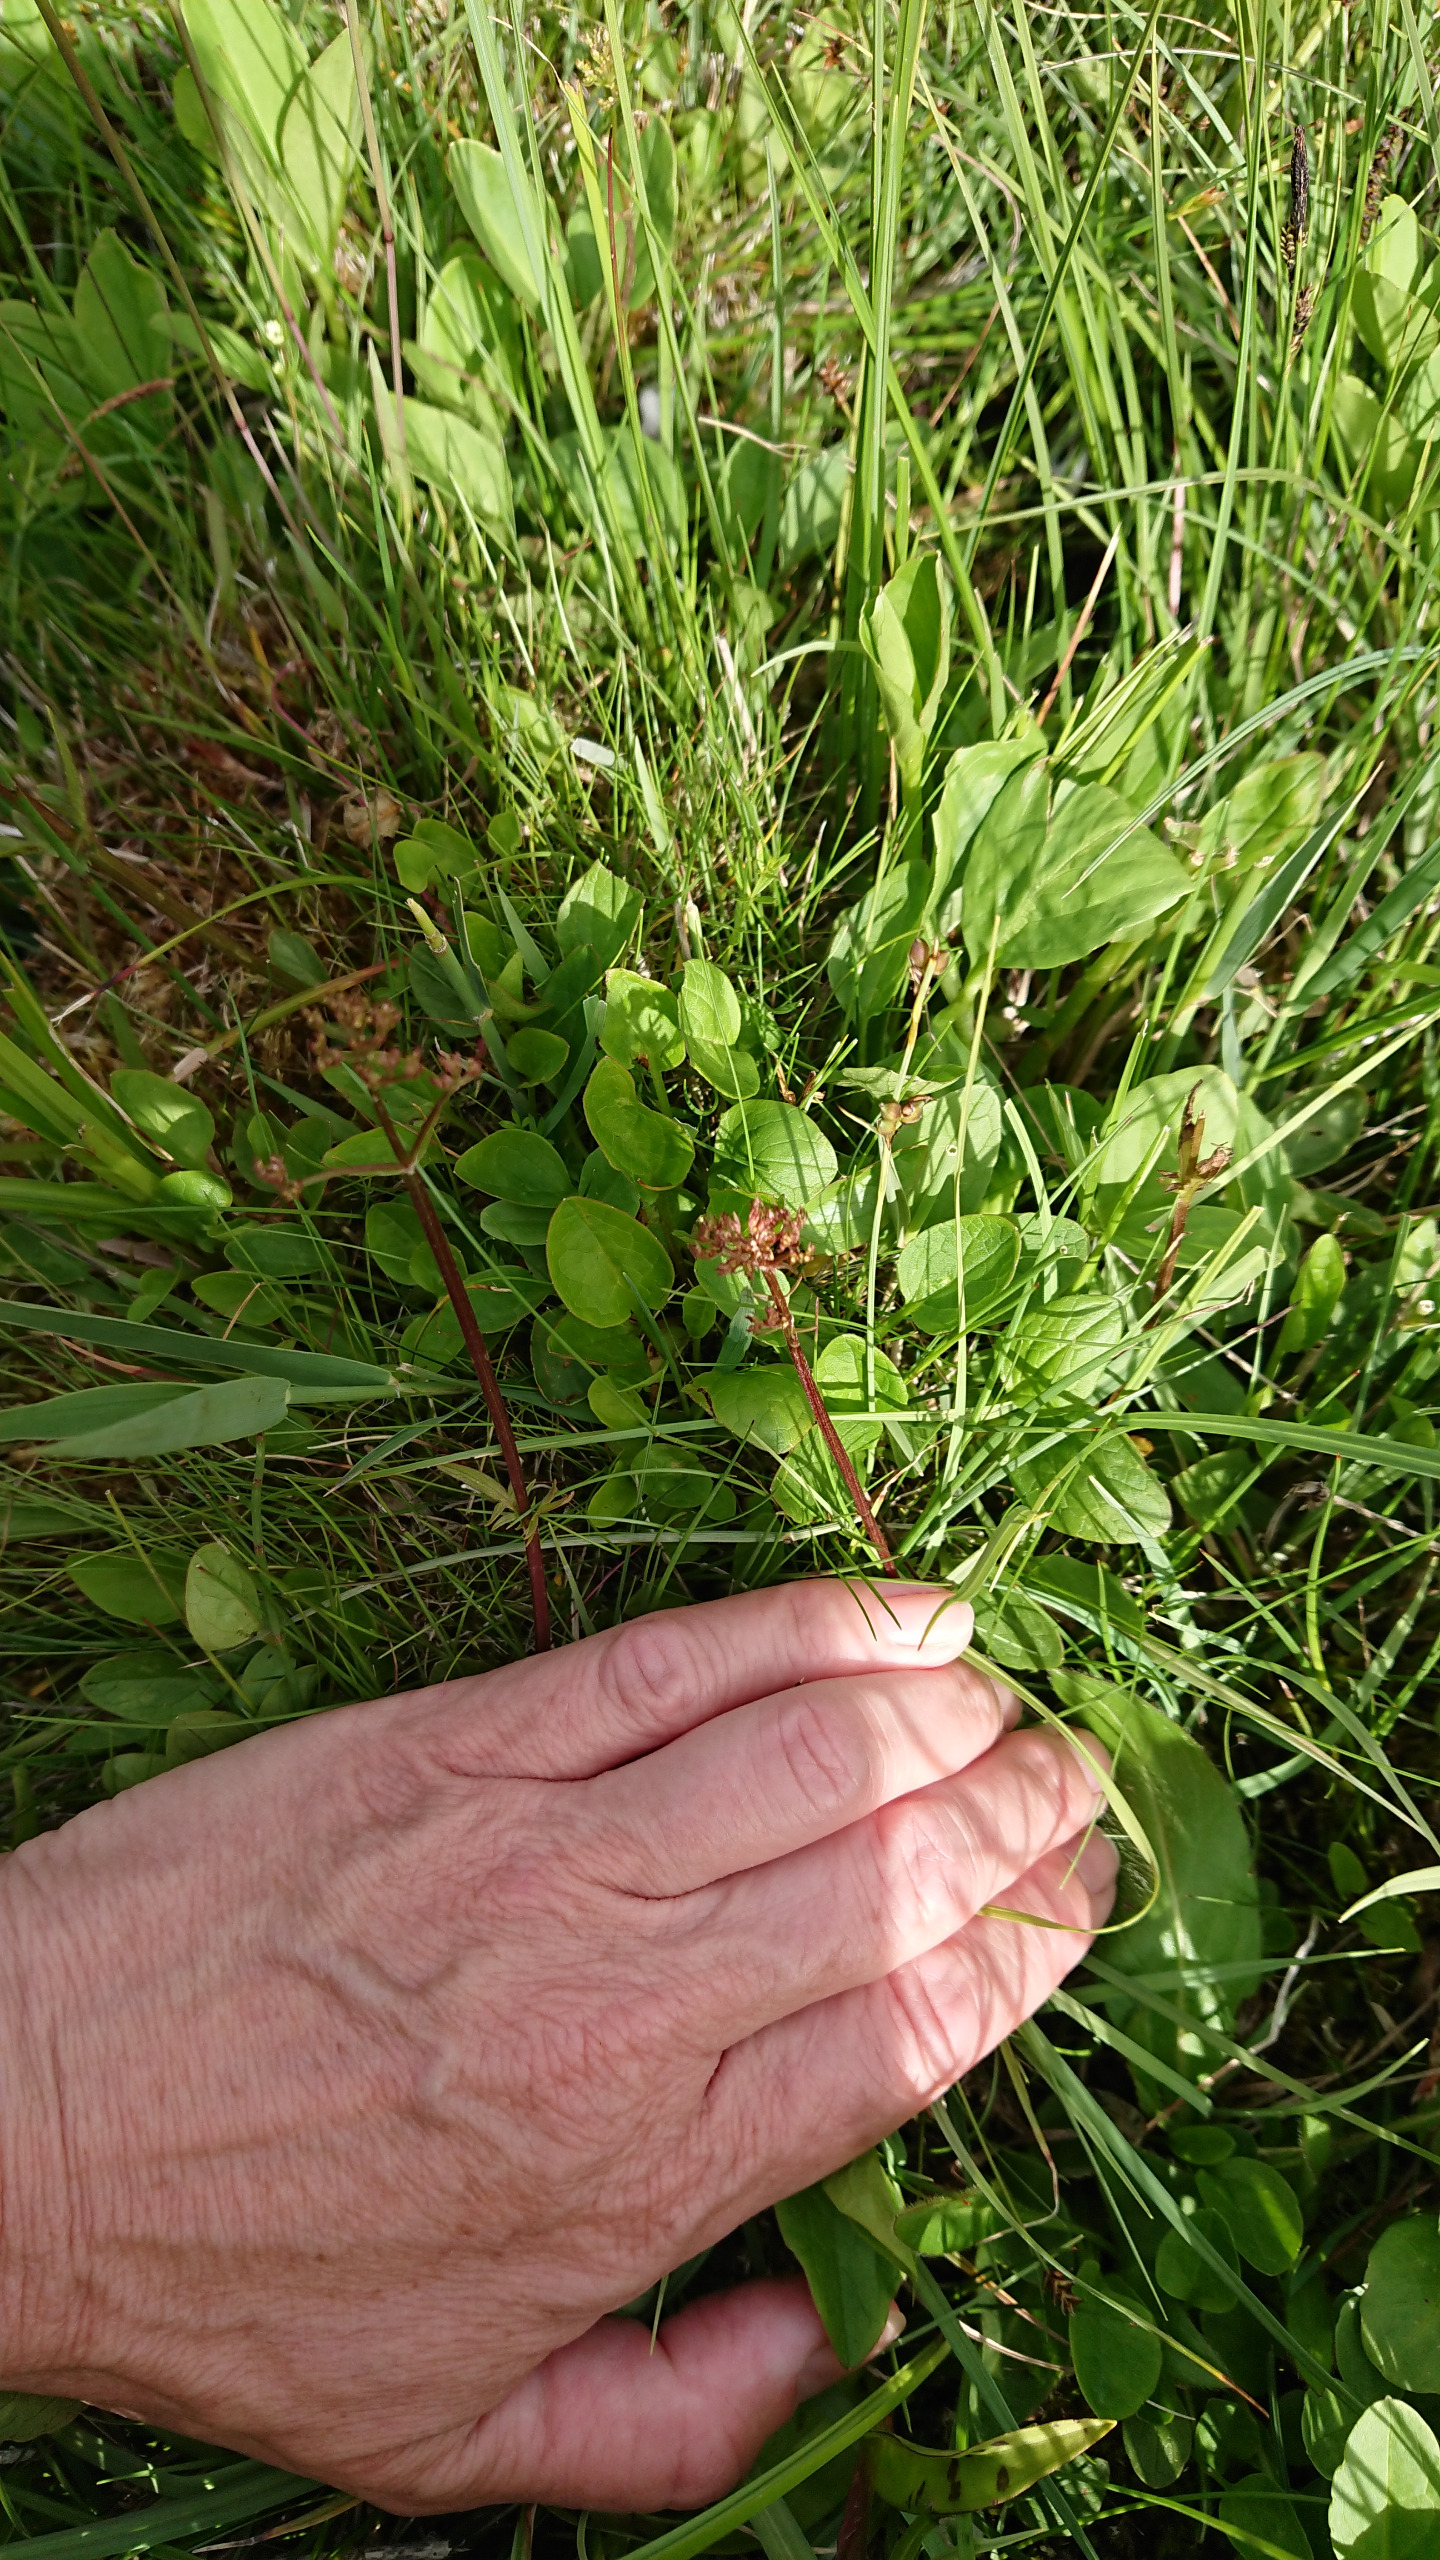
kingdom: Plantae
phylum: Tracheophyta
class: Magnoliopsida
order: Dipsacales
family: Caprifoliaceae
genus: Valeriana
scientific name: Valeriana dioica
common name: Tvebo baldrian
